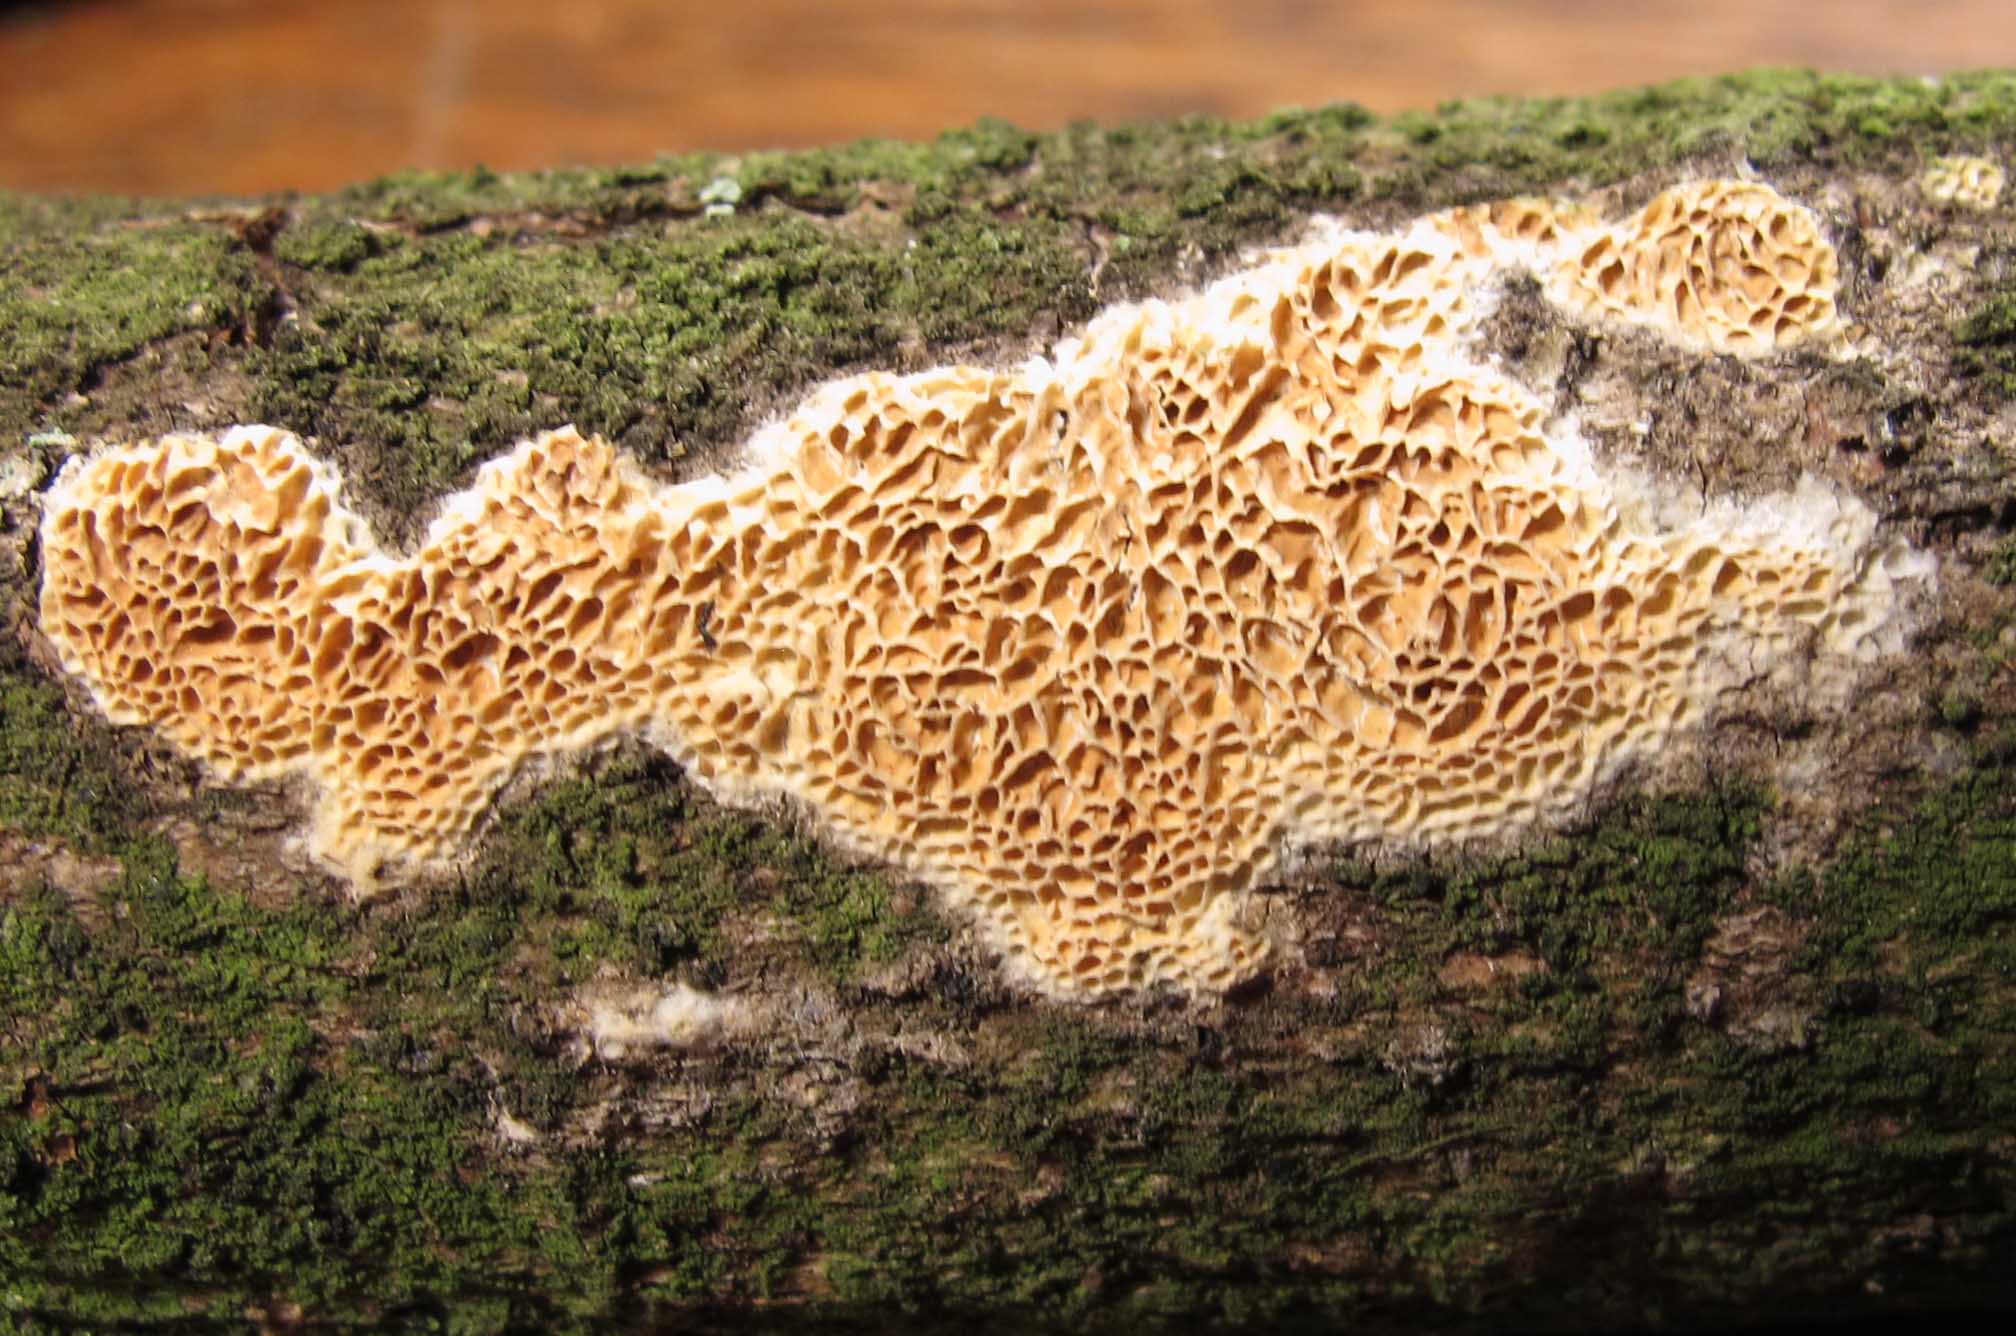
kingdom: Fungi
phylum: Basidiomycota
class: Agaricomycetes
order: Polyporales
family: Fomitopsidaceae
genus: Brunneoporus
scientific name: Brunneoporus kuzyanus
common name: brunlig sejporesvamp
